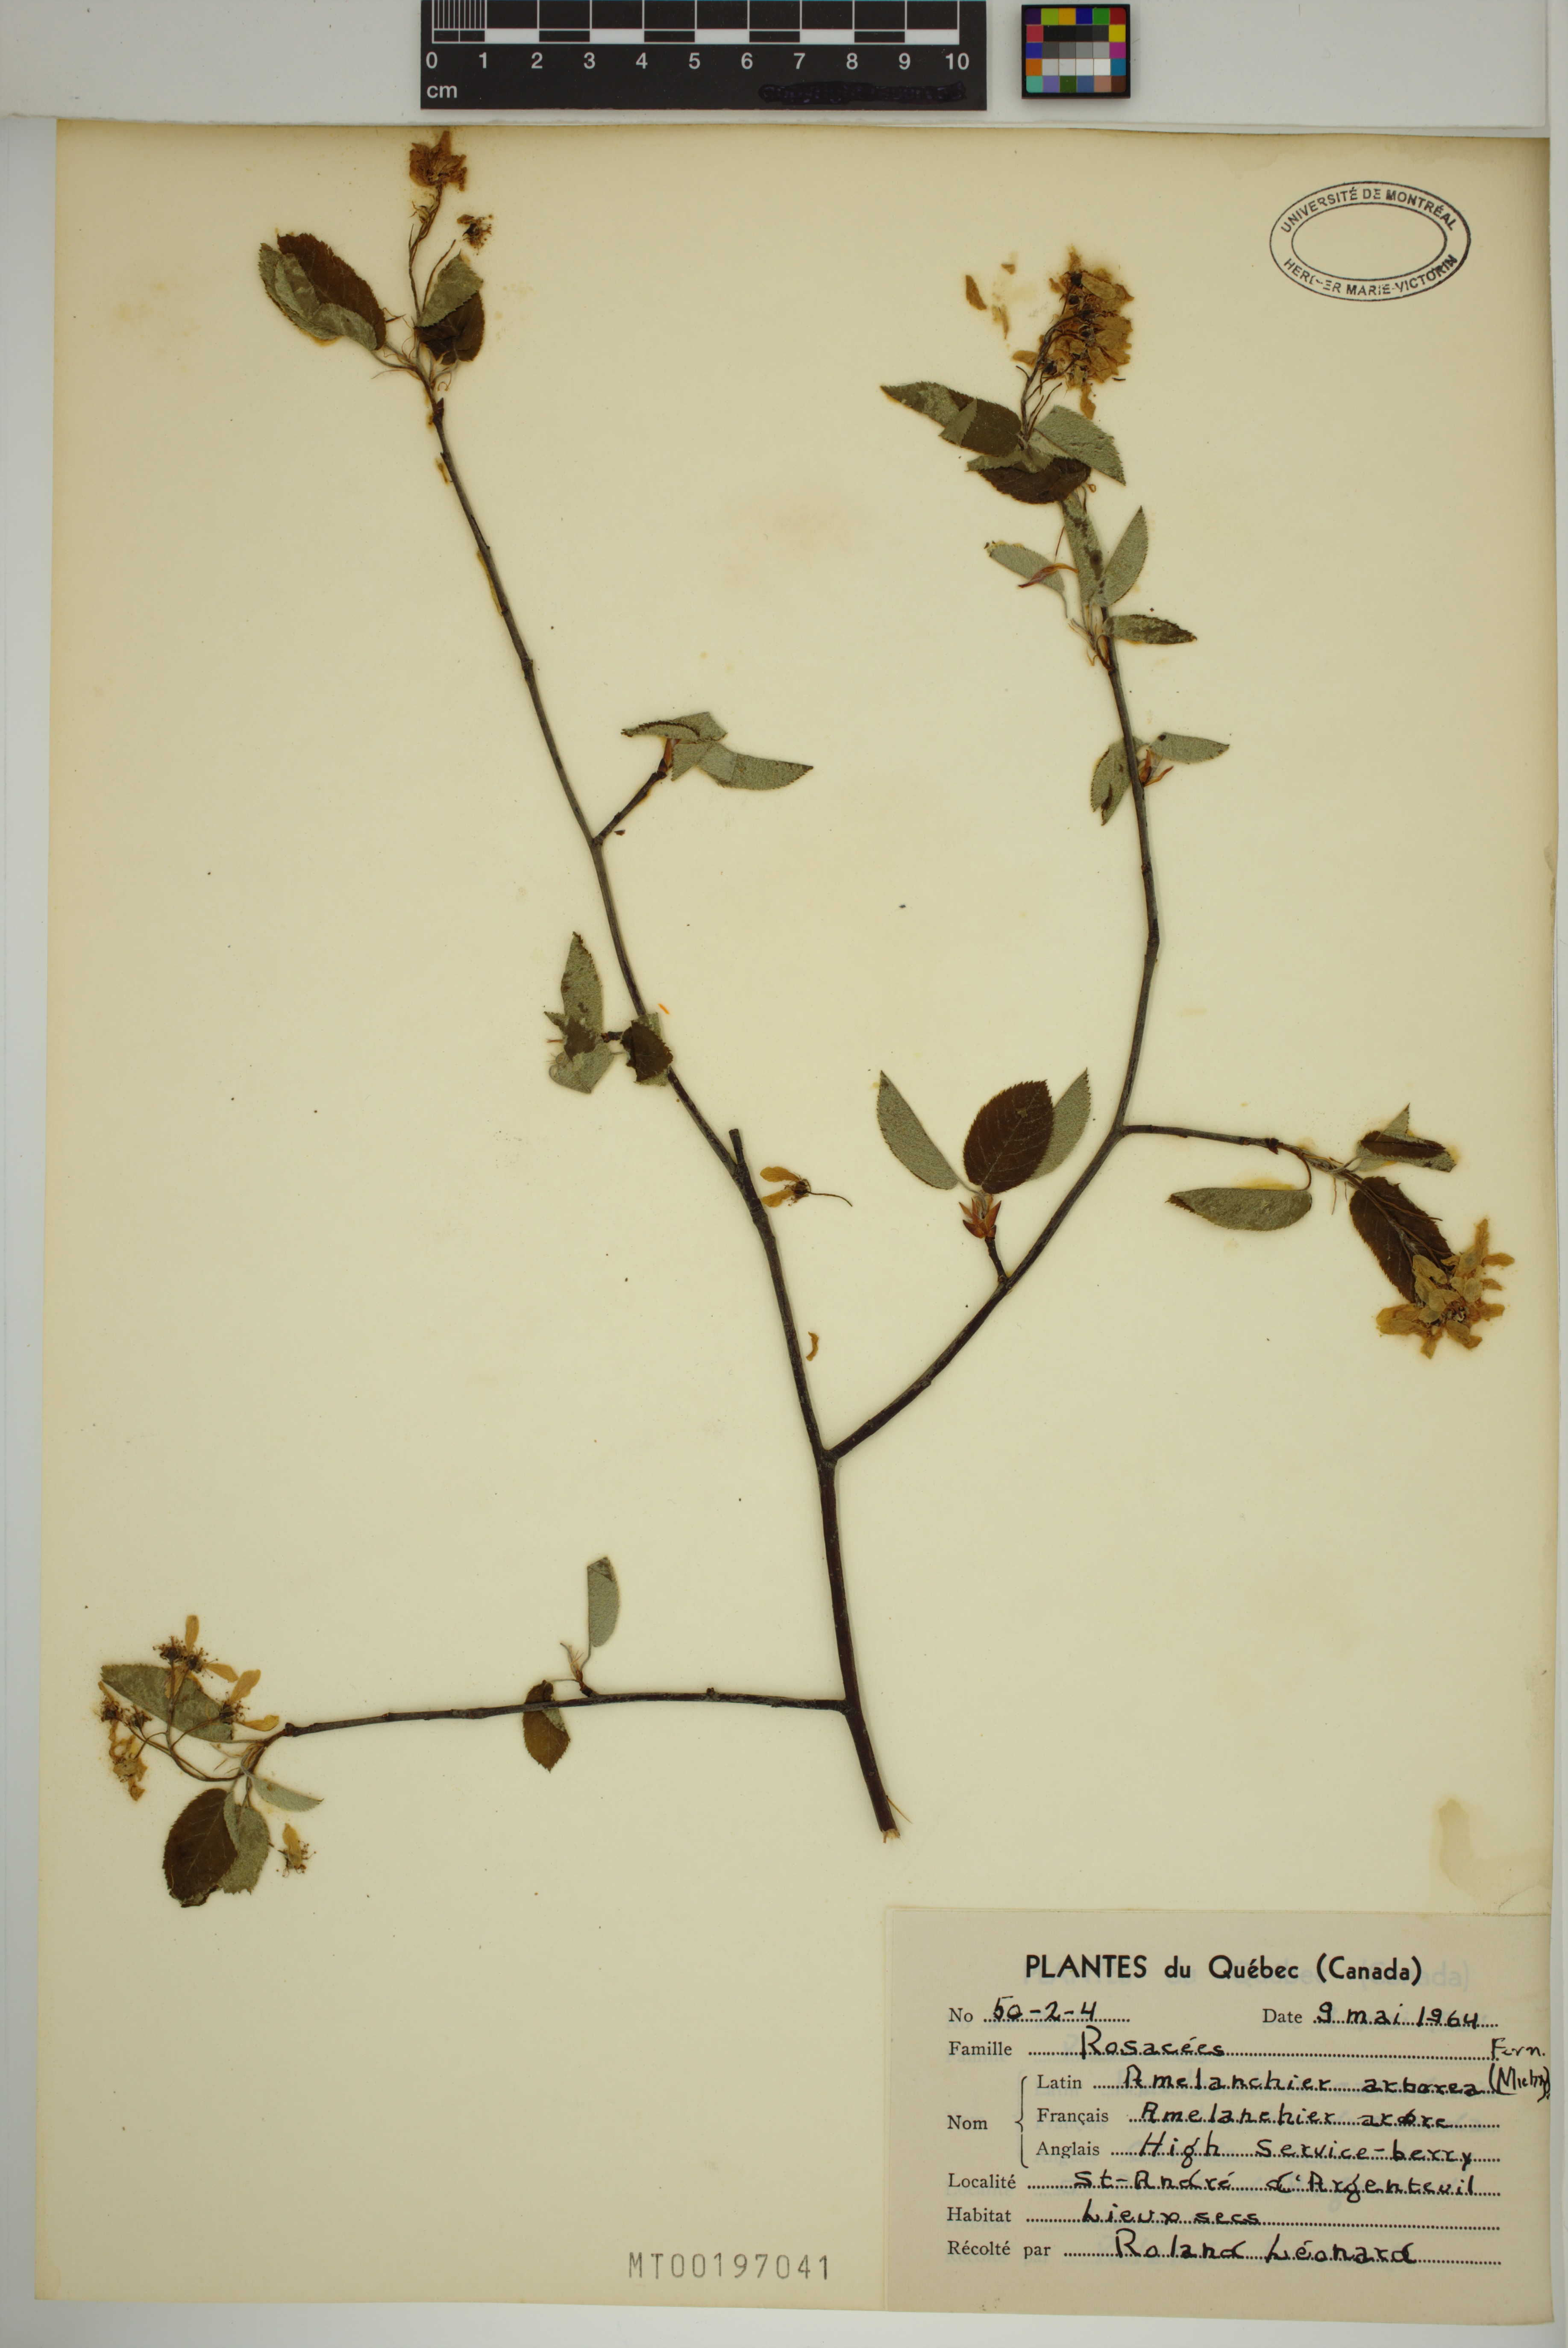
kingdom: Plantae
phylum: Tracheophyta
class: Magnoliopsida
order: Rosales
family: Rosaceae
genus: Amelanchier
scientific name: Amelanchier arborea
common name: Downy serviceberry
